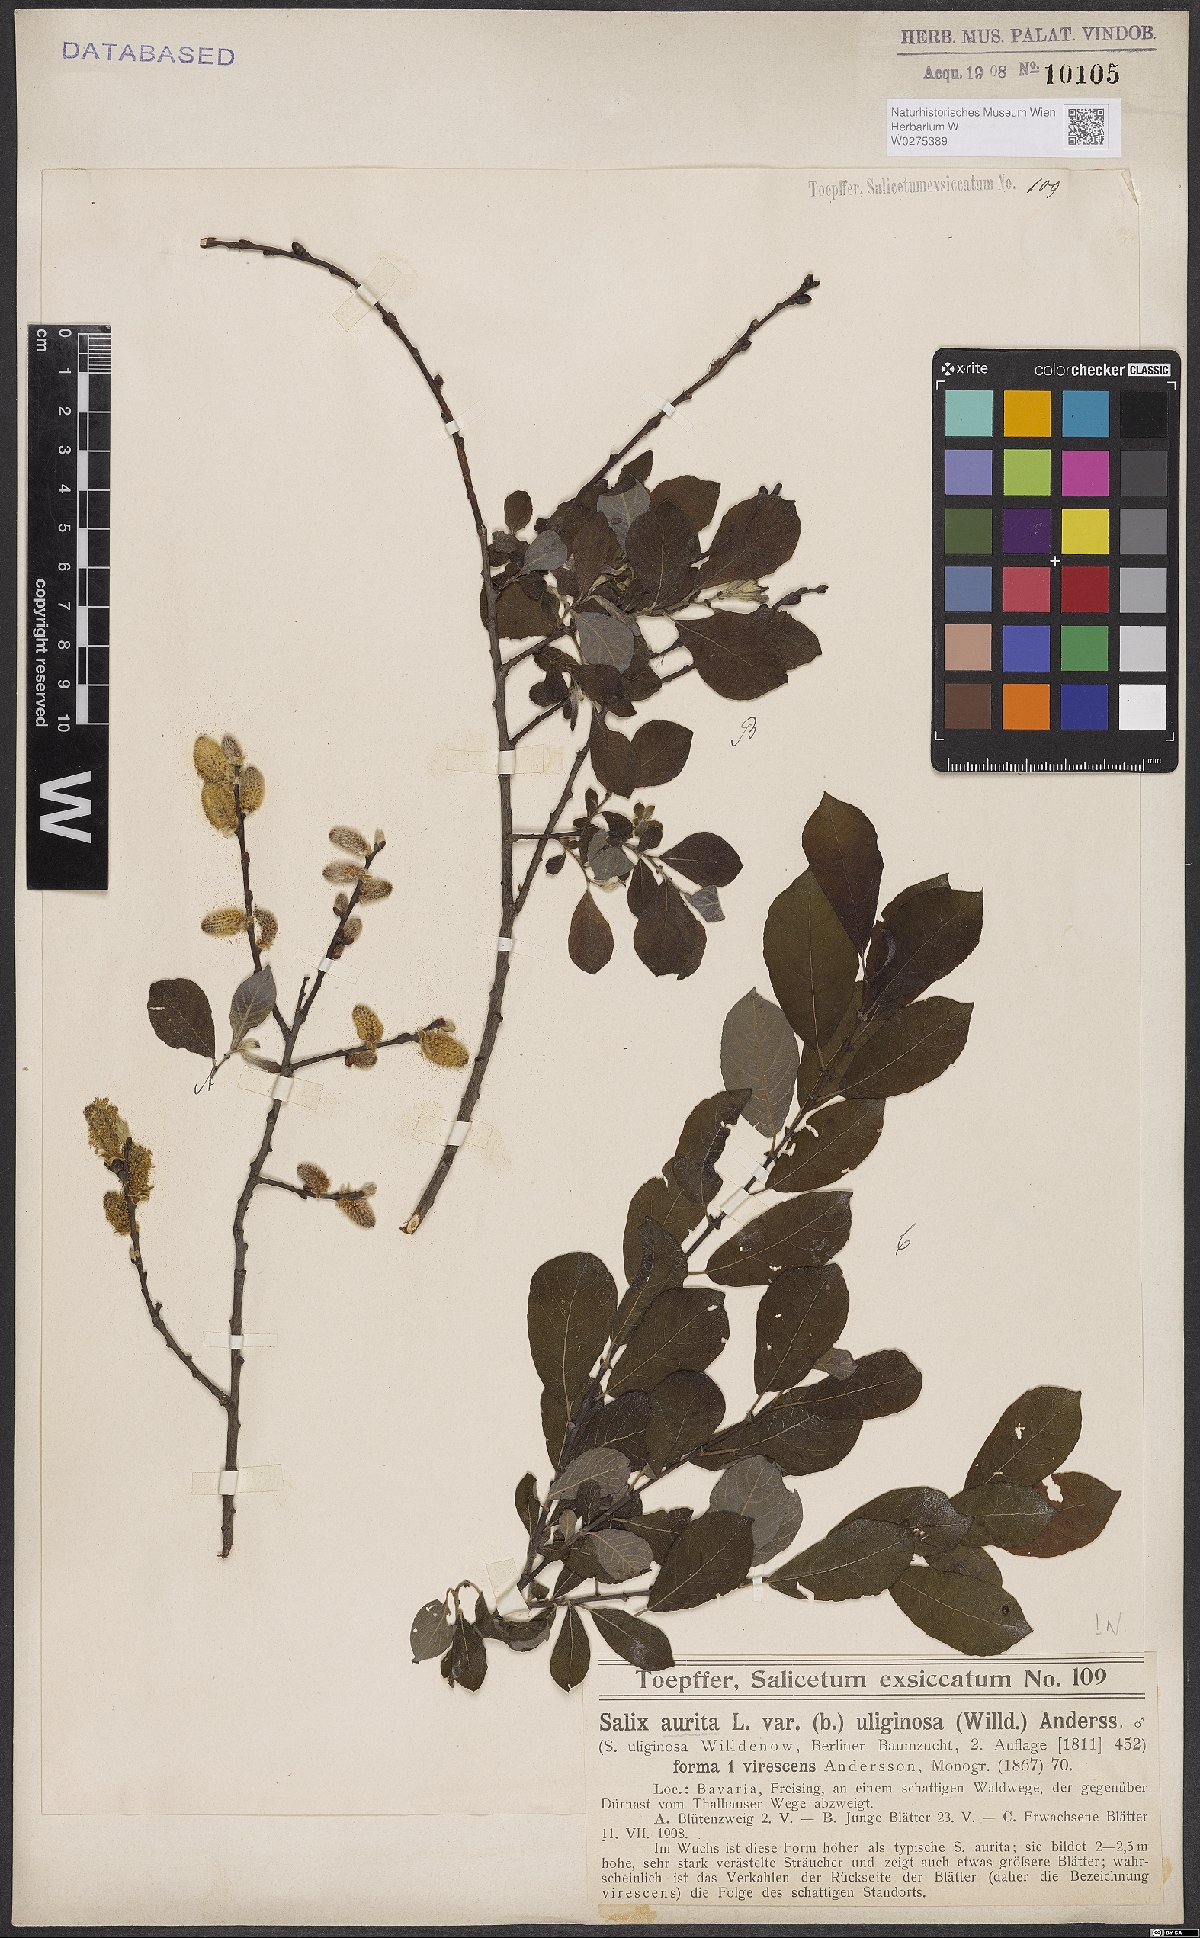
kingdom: Plantae
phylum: Tracheophyta
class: Magnoliopsida
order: Malpighiales
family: Salicaceae
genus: Salix
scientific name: Salix aurita
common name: Eared willow
